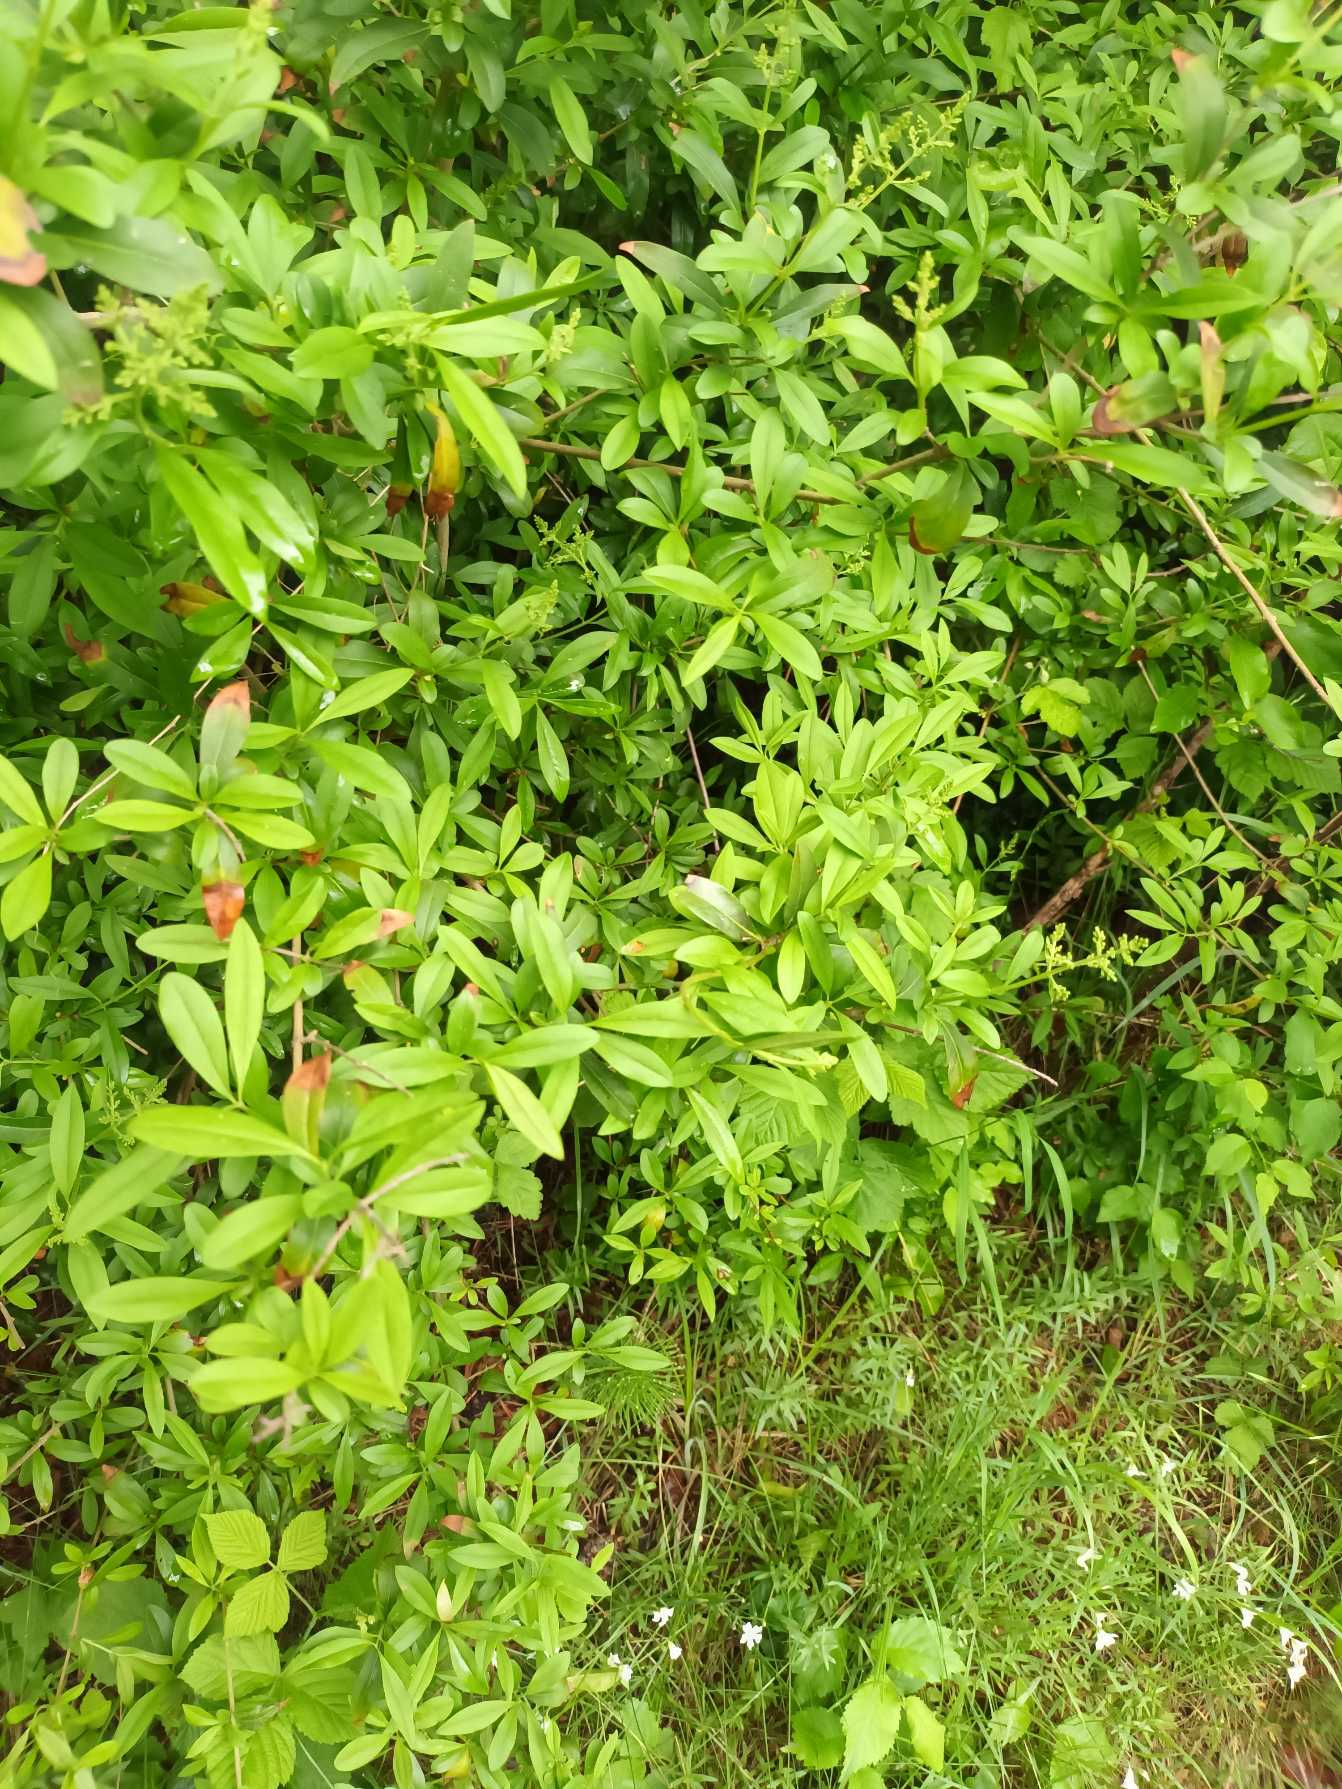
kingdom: Plantae
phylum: Tracheophyta
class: Magnoliopsida
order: Lamiales
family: Oleaceae
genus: Ligustrum
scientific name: Ligustrum vulgare
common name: Liguster
